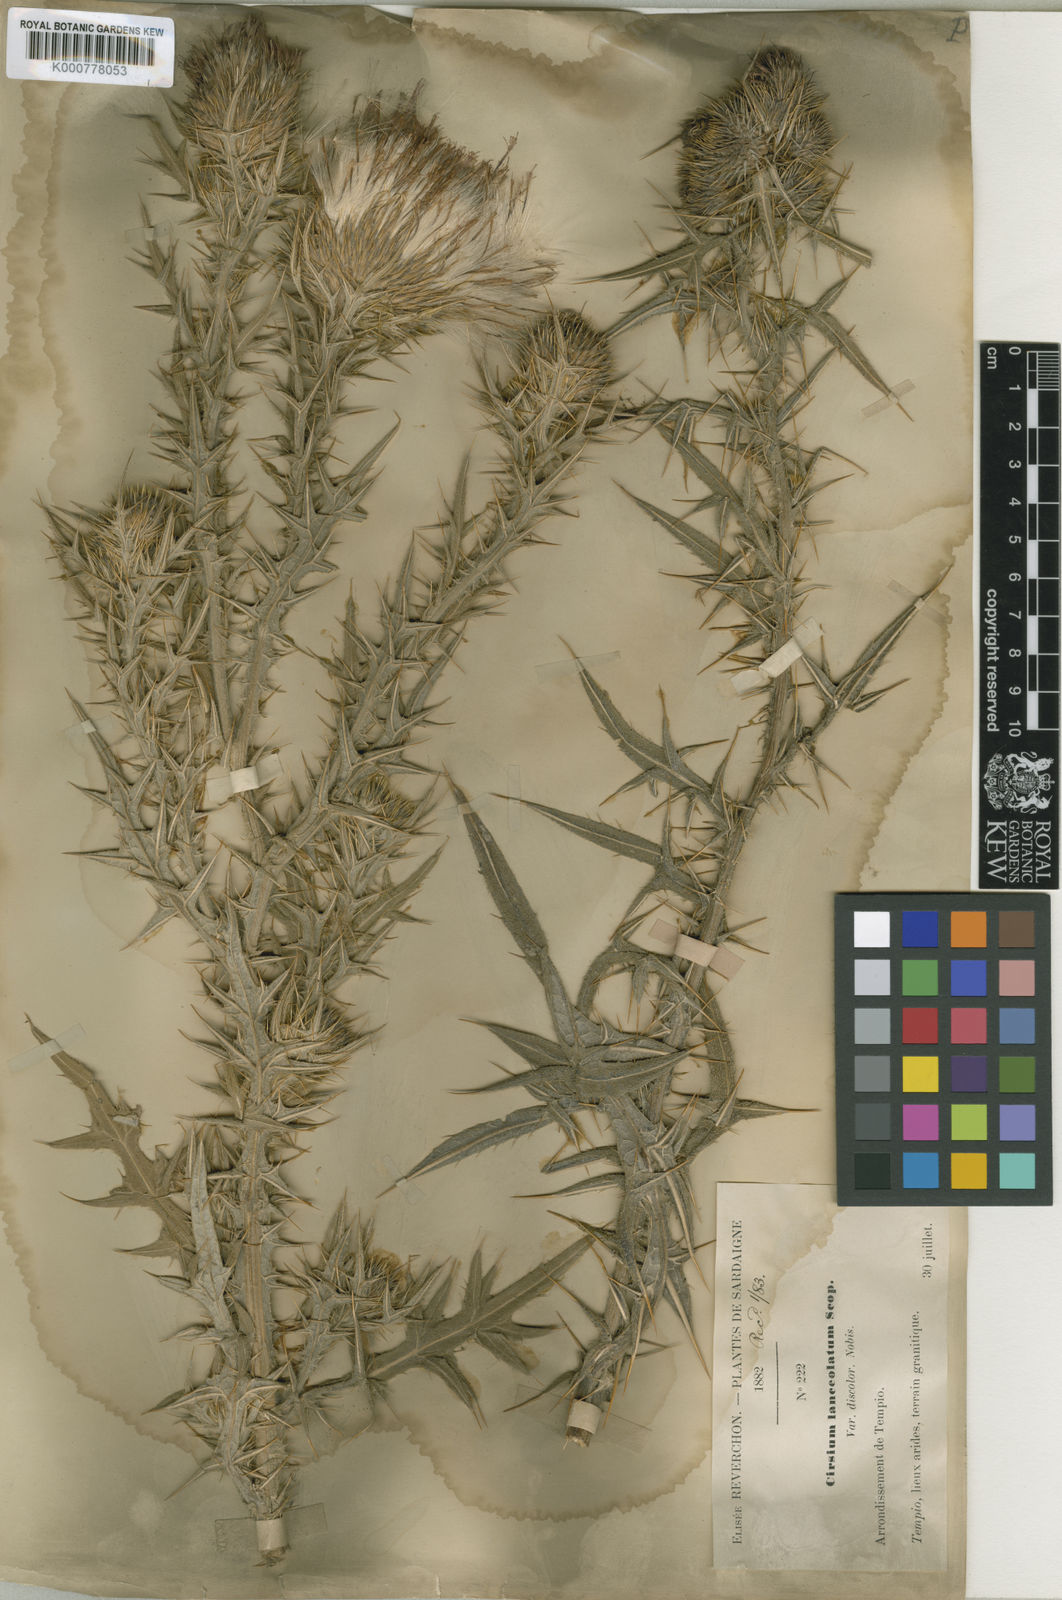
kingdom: Plantae
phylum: Tracheophyta
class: Magnoliopsida
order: Asterales
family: Asteraceae
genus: Cirsium
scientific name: Cirsium vulgare
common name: Bull thistle
